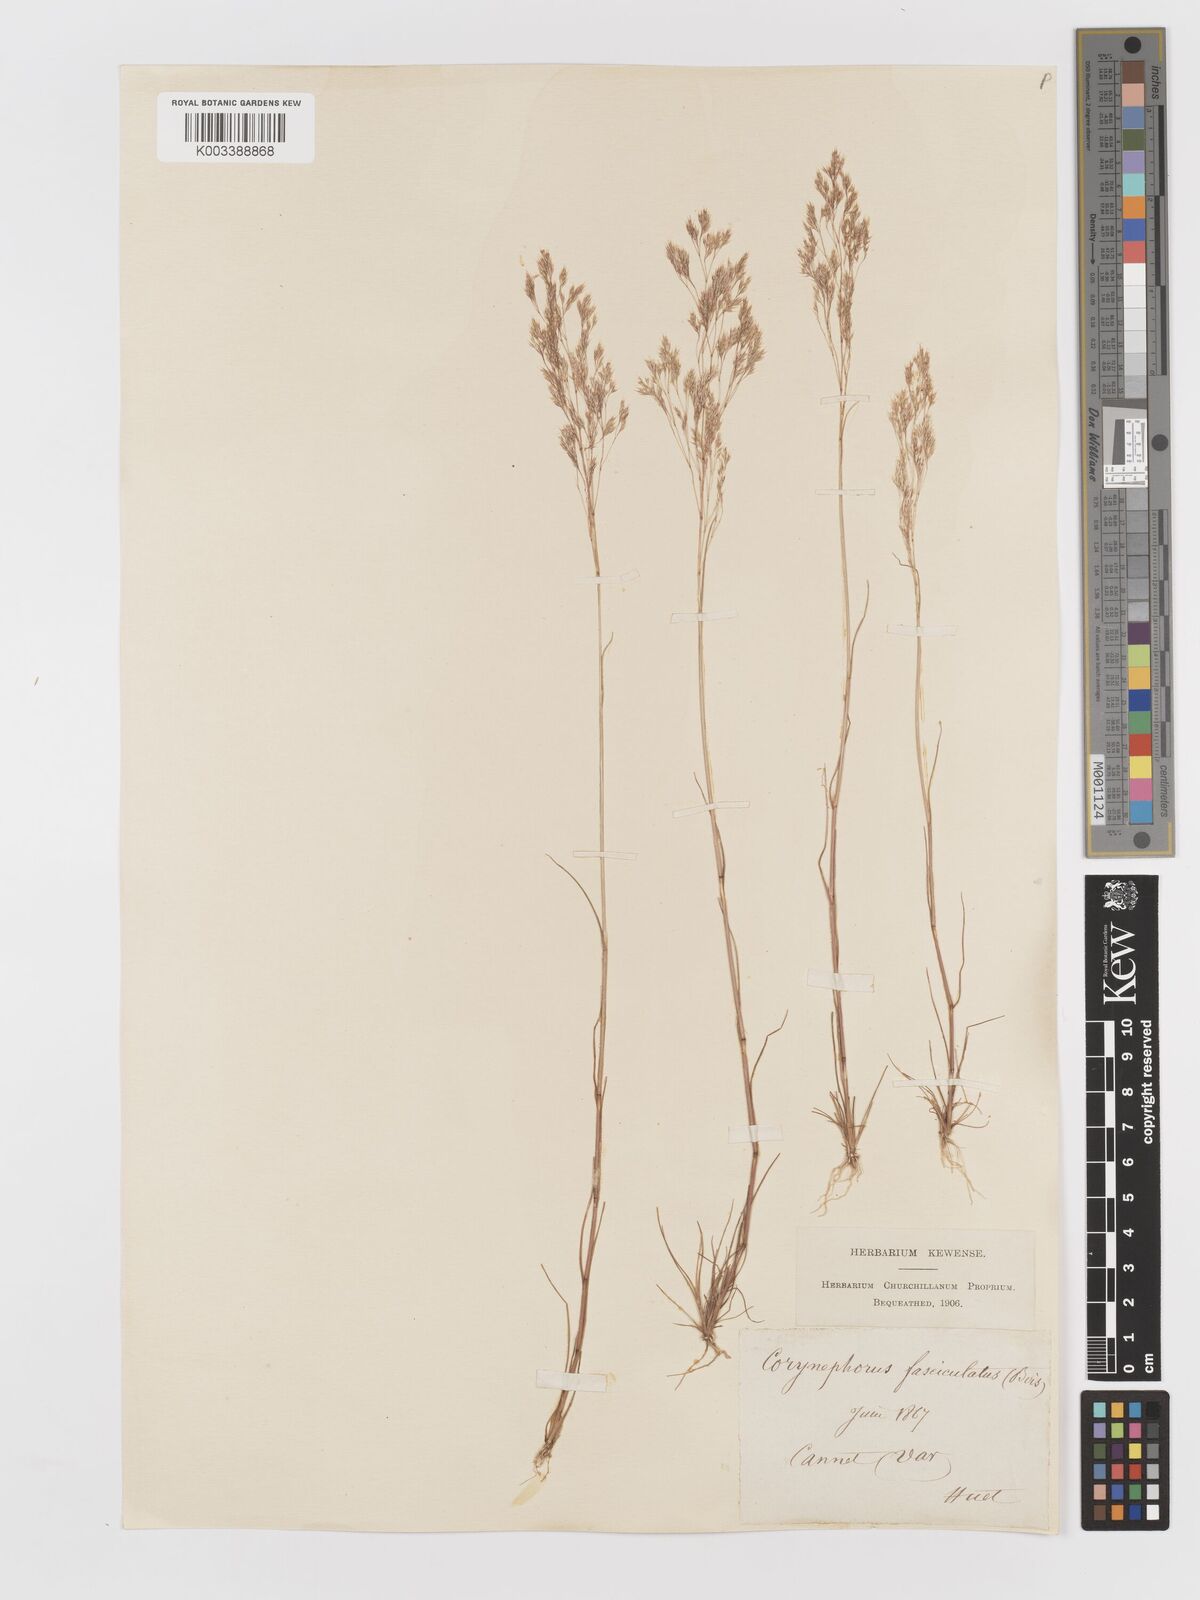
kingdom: Plantae
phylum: Tracheophyta
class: Liliopsida
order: Poales
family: Poaceae
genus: Corynephorus
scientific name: Corynephorus fasciculatus
